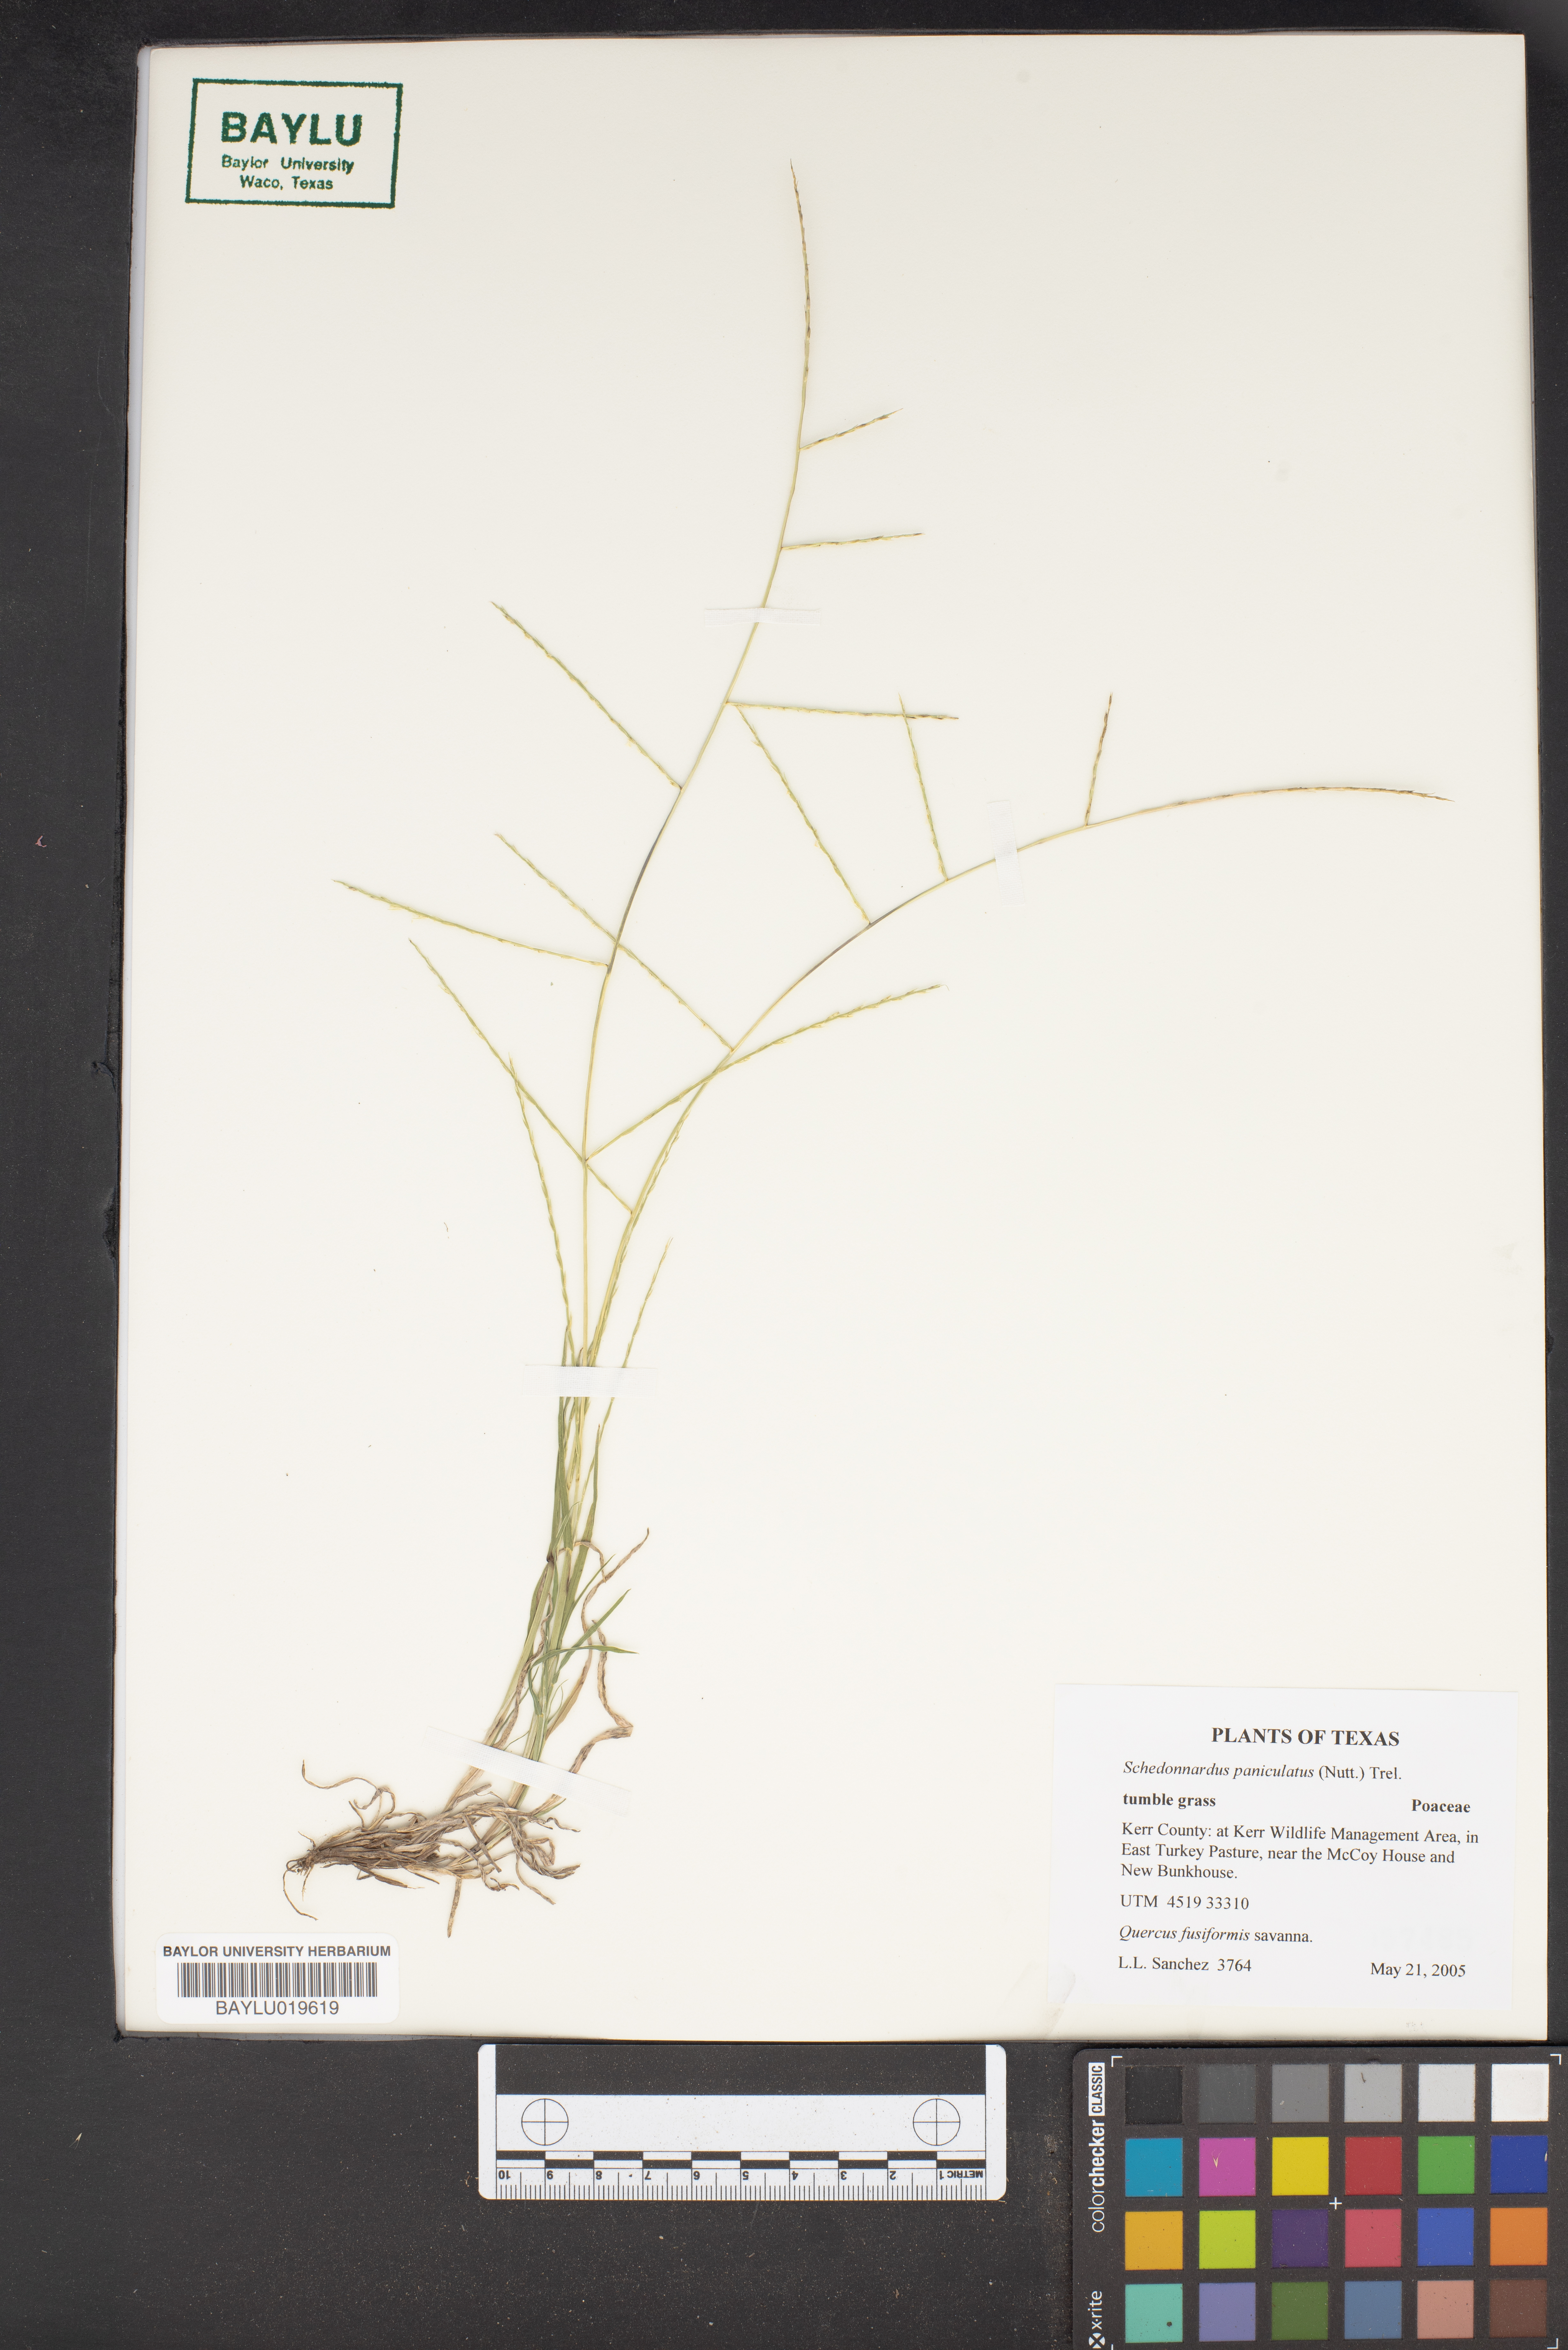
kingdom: Plantae
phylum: Tracheophyta
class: Liliopsida
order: Poales
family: Poaceae
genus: Muhlenbergia
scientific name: Muhlenbergia paniculata
